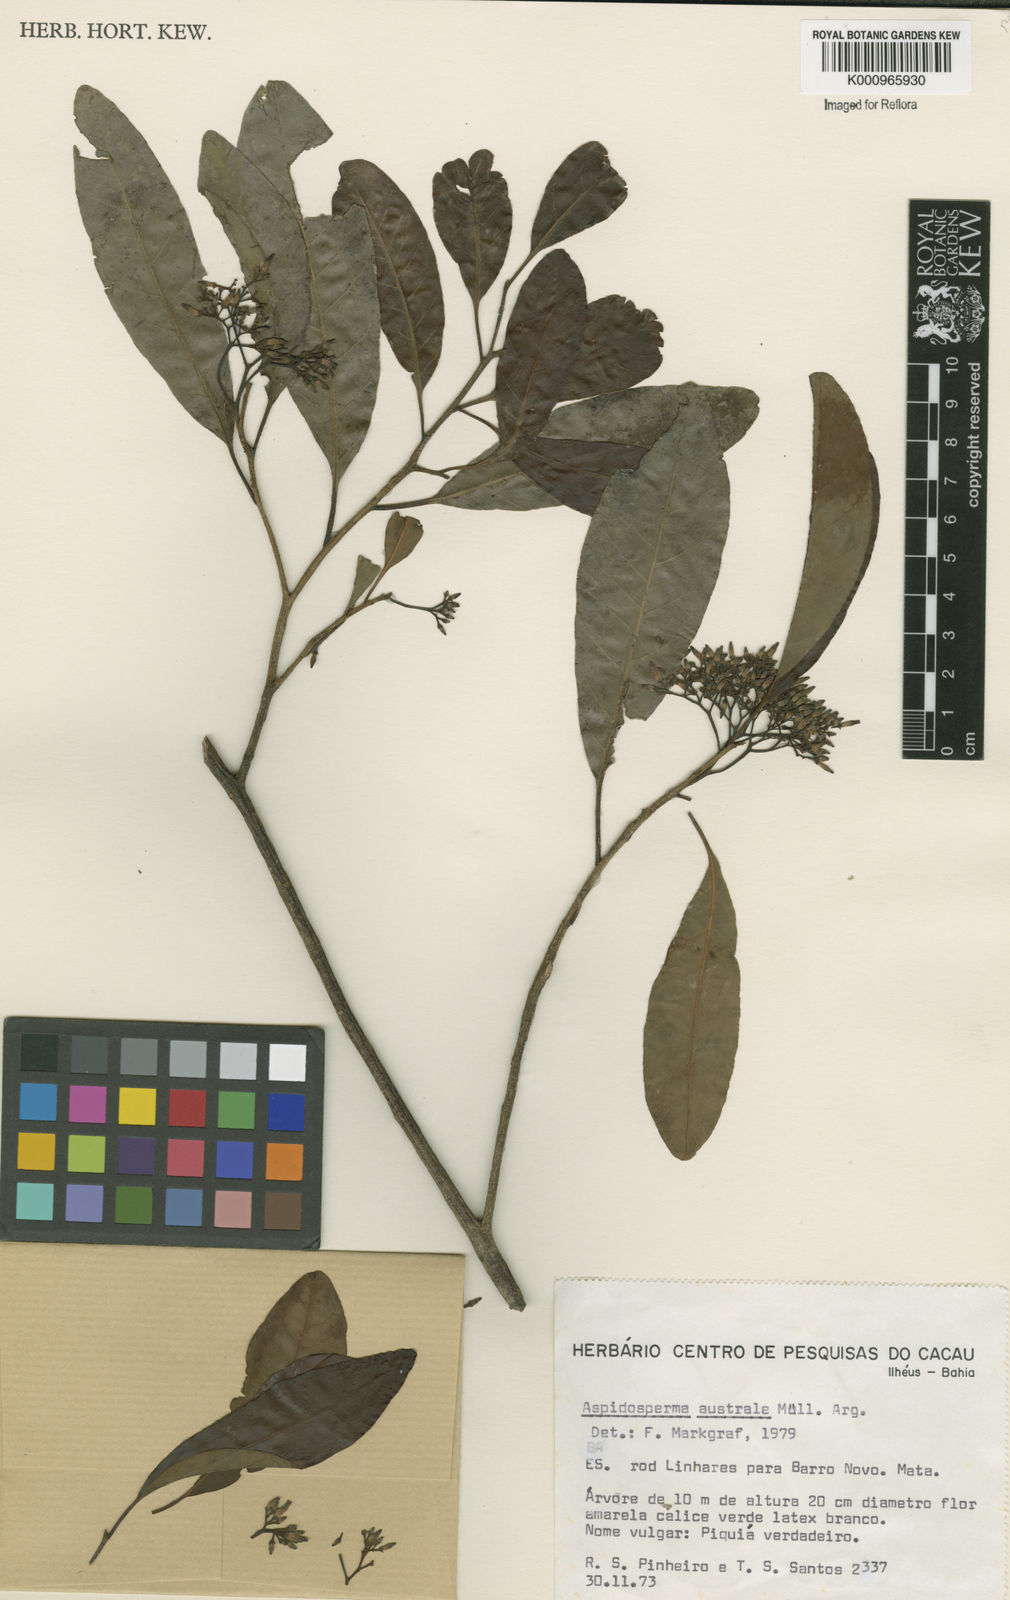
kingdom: Plantae
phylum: Tracheophyta
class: Magnoliopsida
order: Gentianales
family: Apocynaceae
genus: Aspidosperma
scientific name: Aspidosperma
